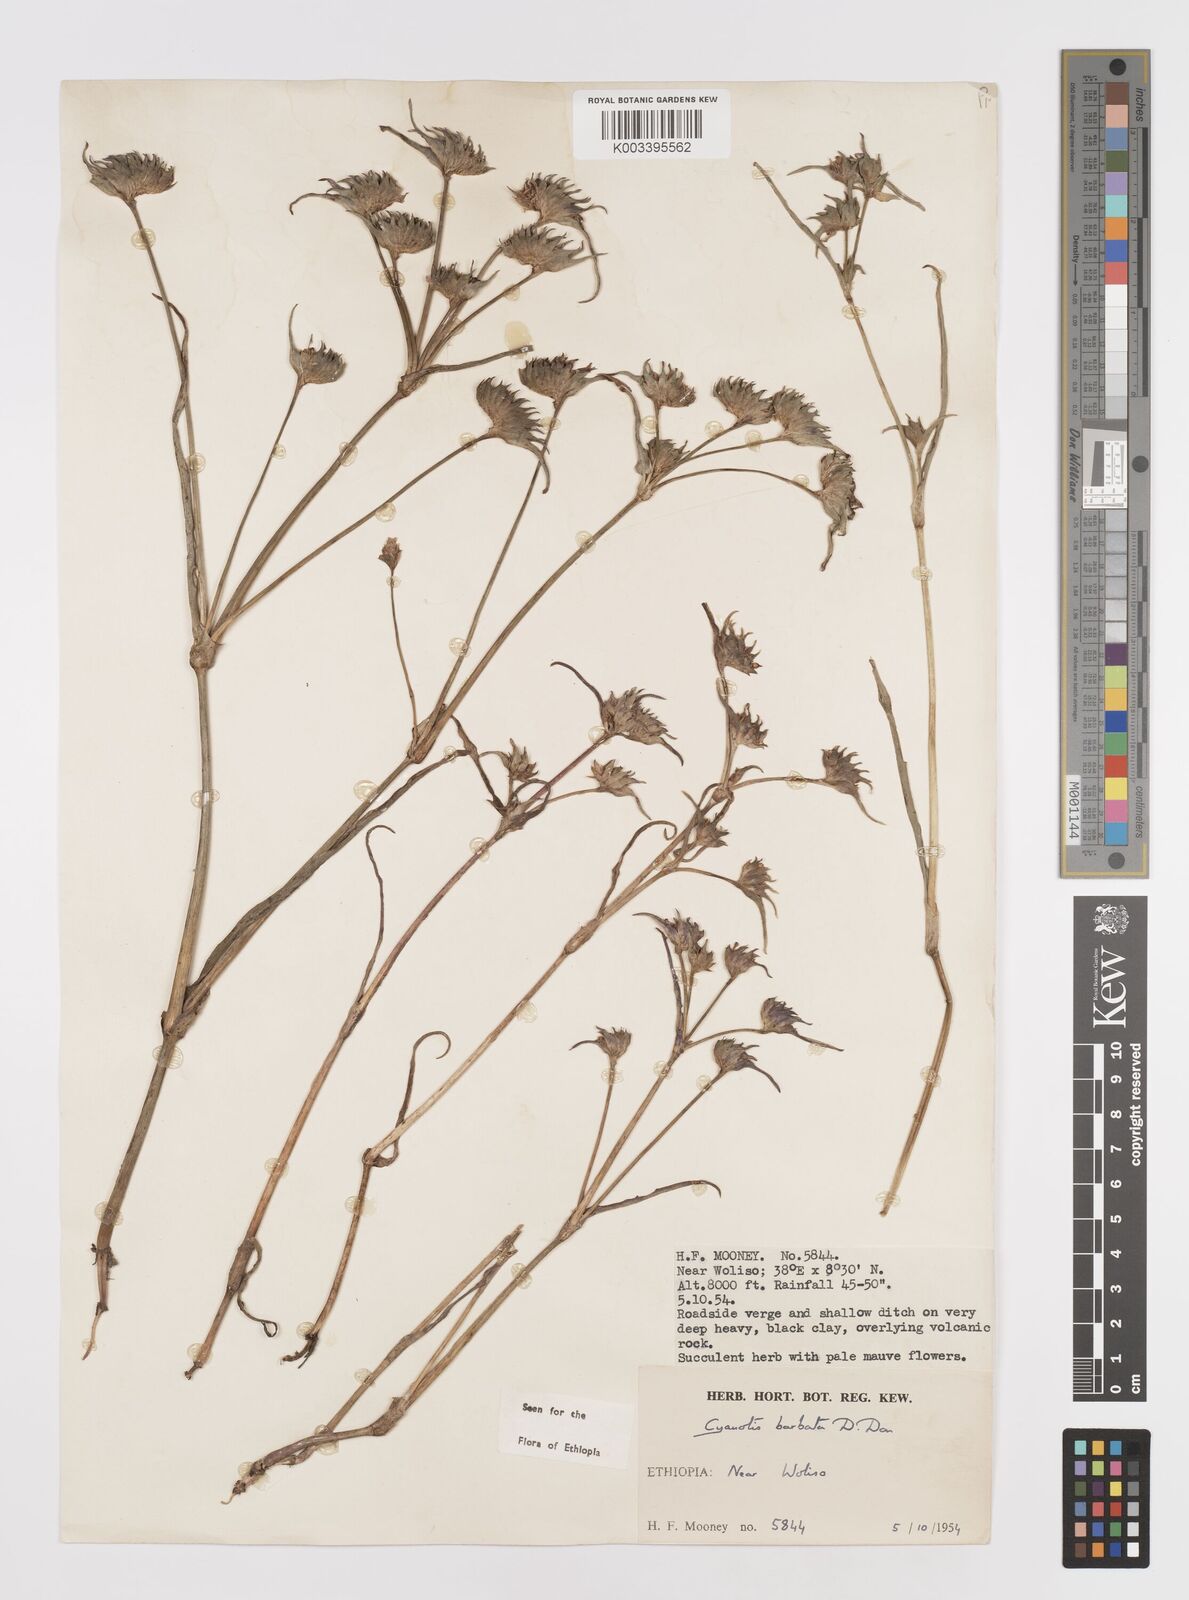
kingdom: Plantae
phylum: Tracheophyta
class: Liliopsida
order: Commelinales
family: Commelinaceae
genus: Cyanotis
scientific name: Cyanotis vaga
